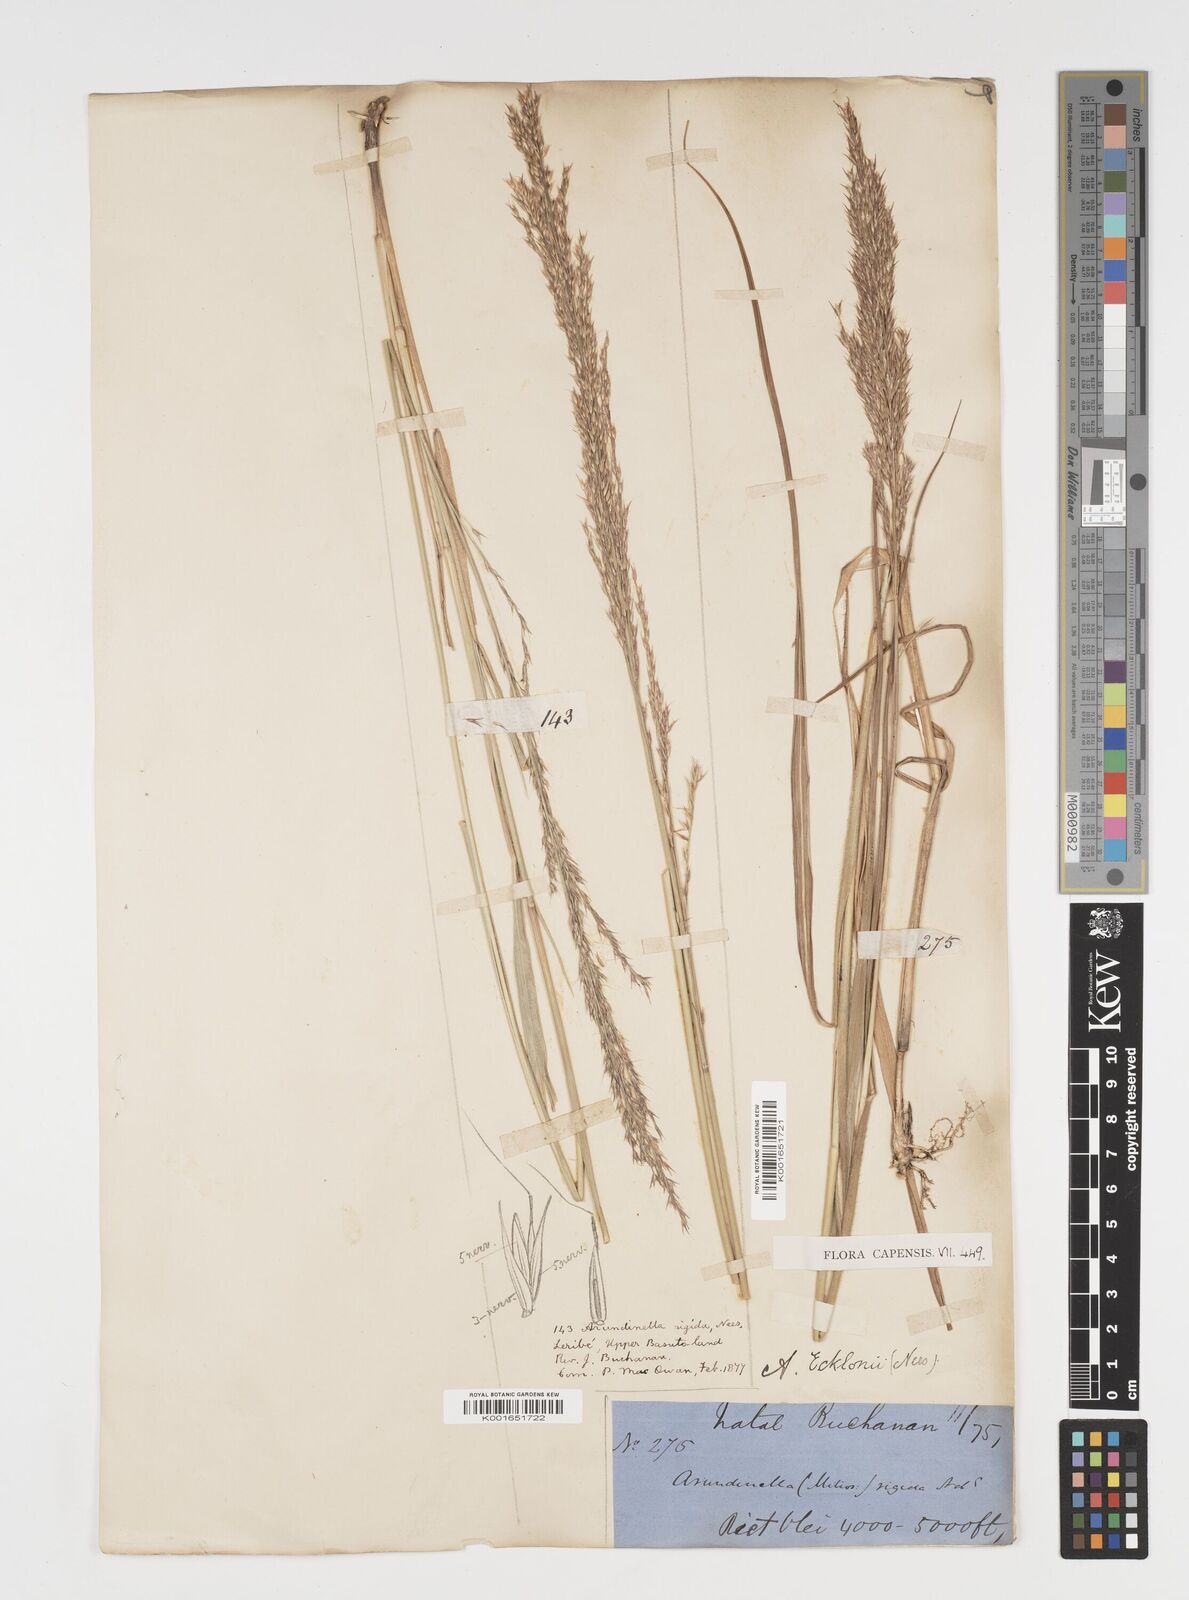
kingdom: Plantae
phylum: Tracheophyta
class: Liliopsida
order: Poales
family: Poaceae
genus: Arundinella
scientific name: Arundinella nepalensis
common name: Reed grass
